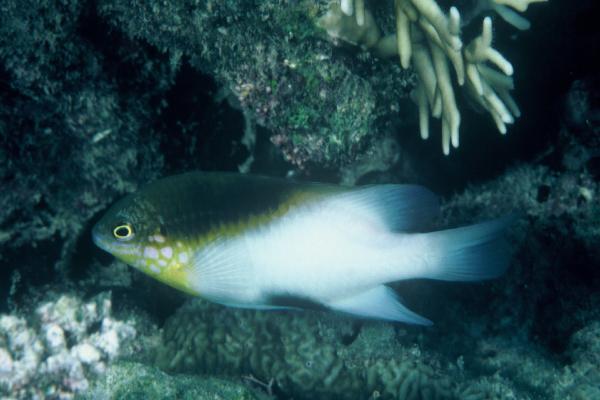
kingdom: Animalia
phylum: Chordata
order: Perciformes
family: Pomacentridae
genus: Dischistodus
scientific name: Dischistodus melanotus
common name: Black-vent damsel
